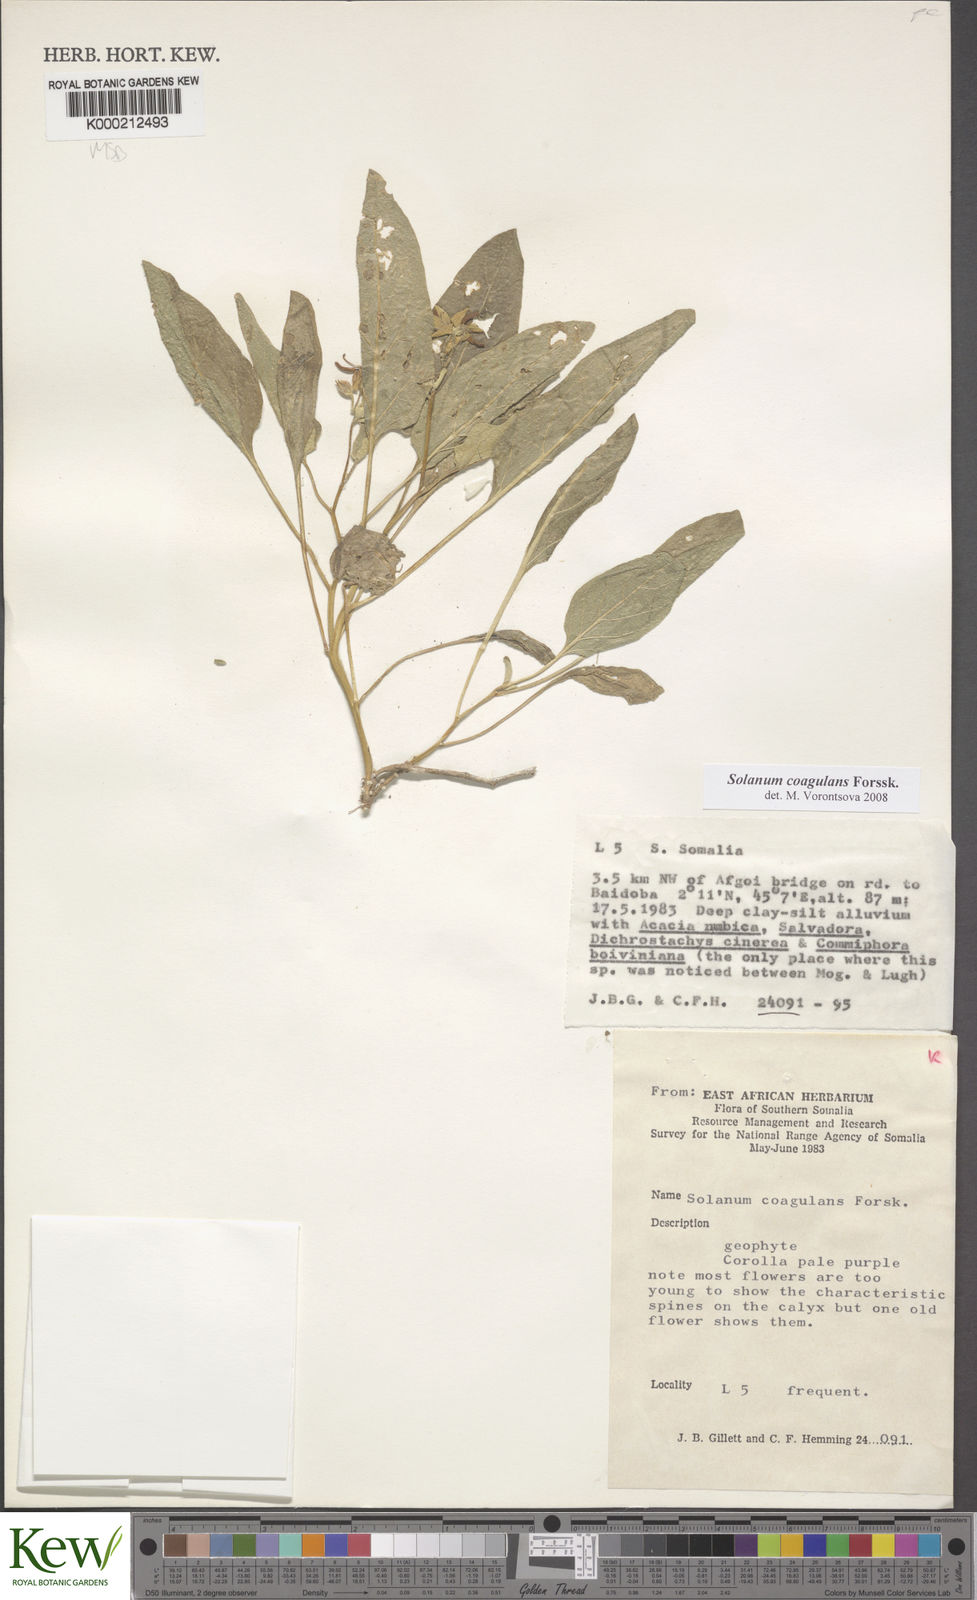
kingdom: Plantae
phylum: Tracheophyta
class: Magnoliopsida
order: Solanales
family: Solanaceae
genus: Solanum
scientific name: Solanum coagulans
